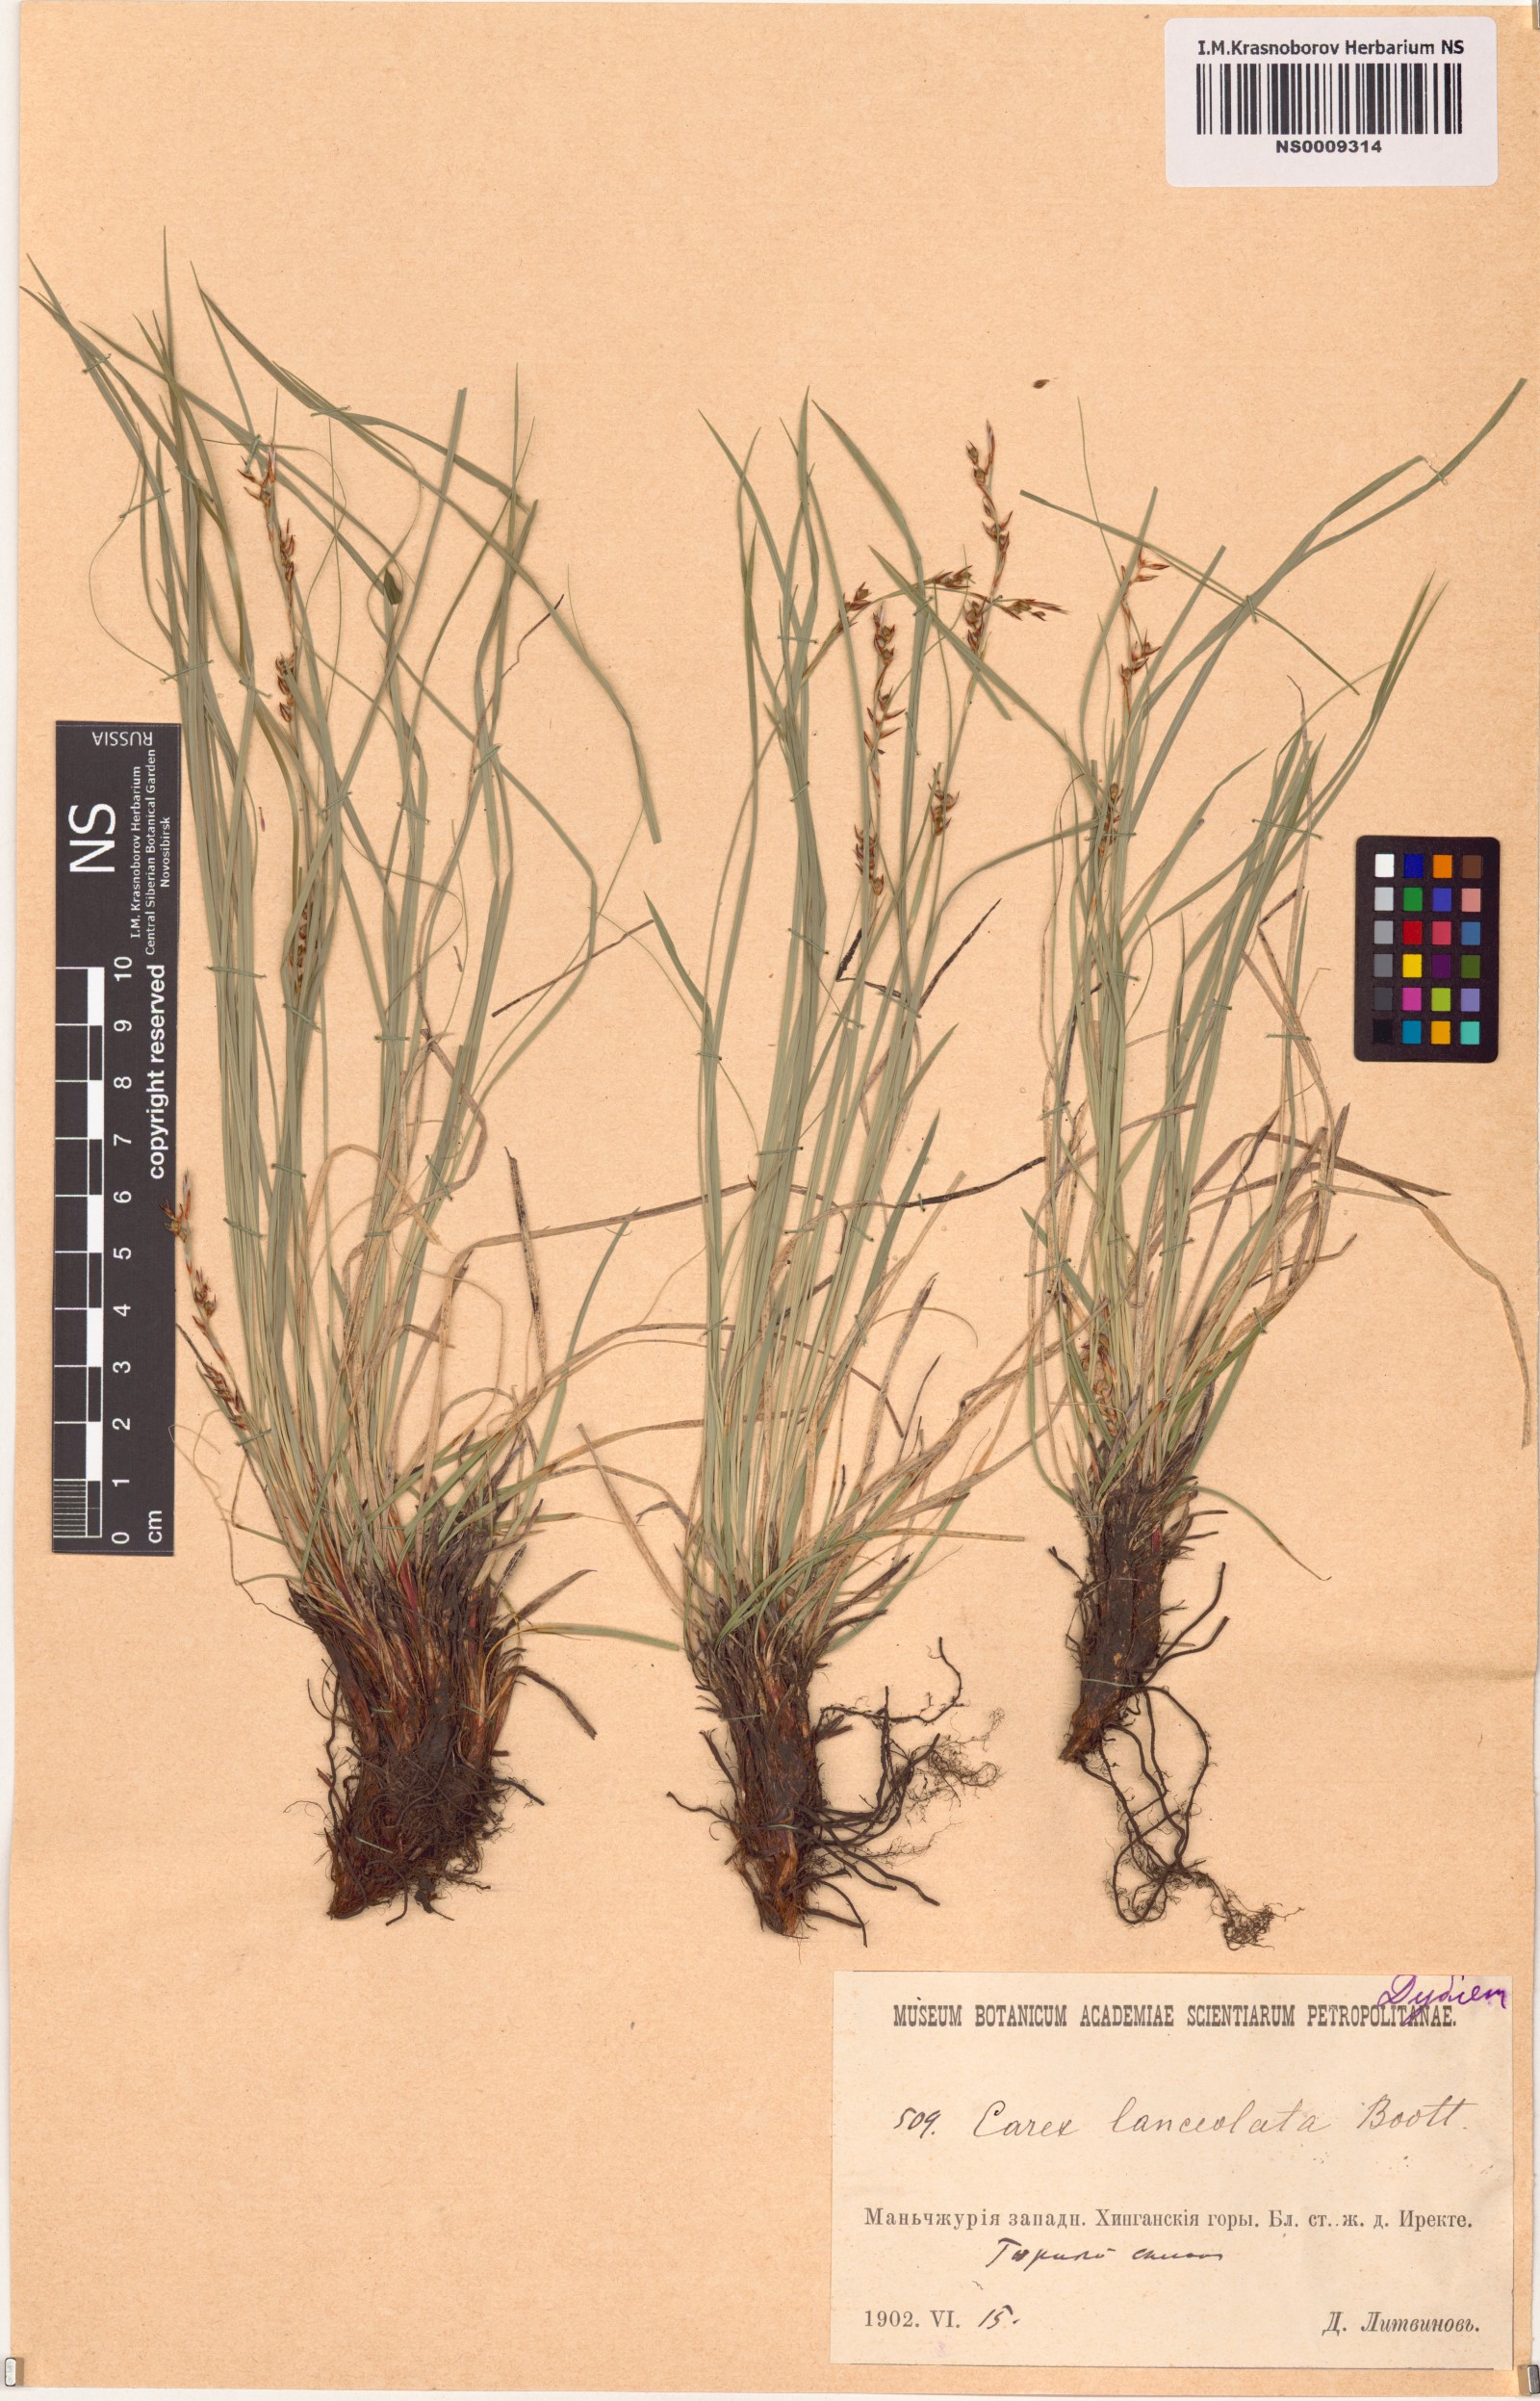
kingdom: Plantae
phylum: Tracheophyta
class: Liliopsida
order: Poales
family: Cyperaceae
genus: Carex
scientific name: Carex lanceolata
